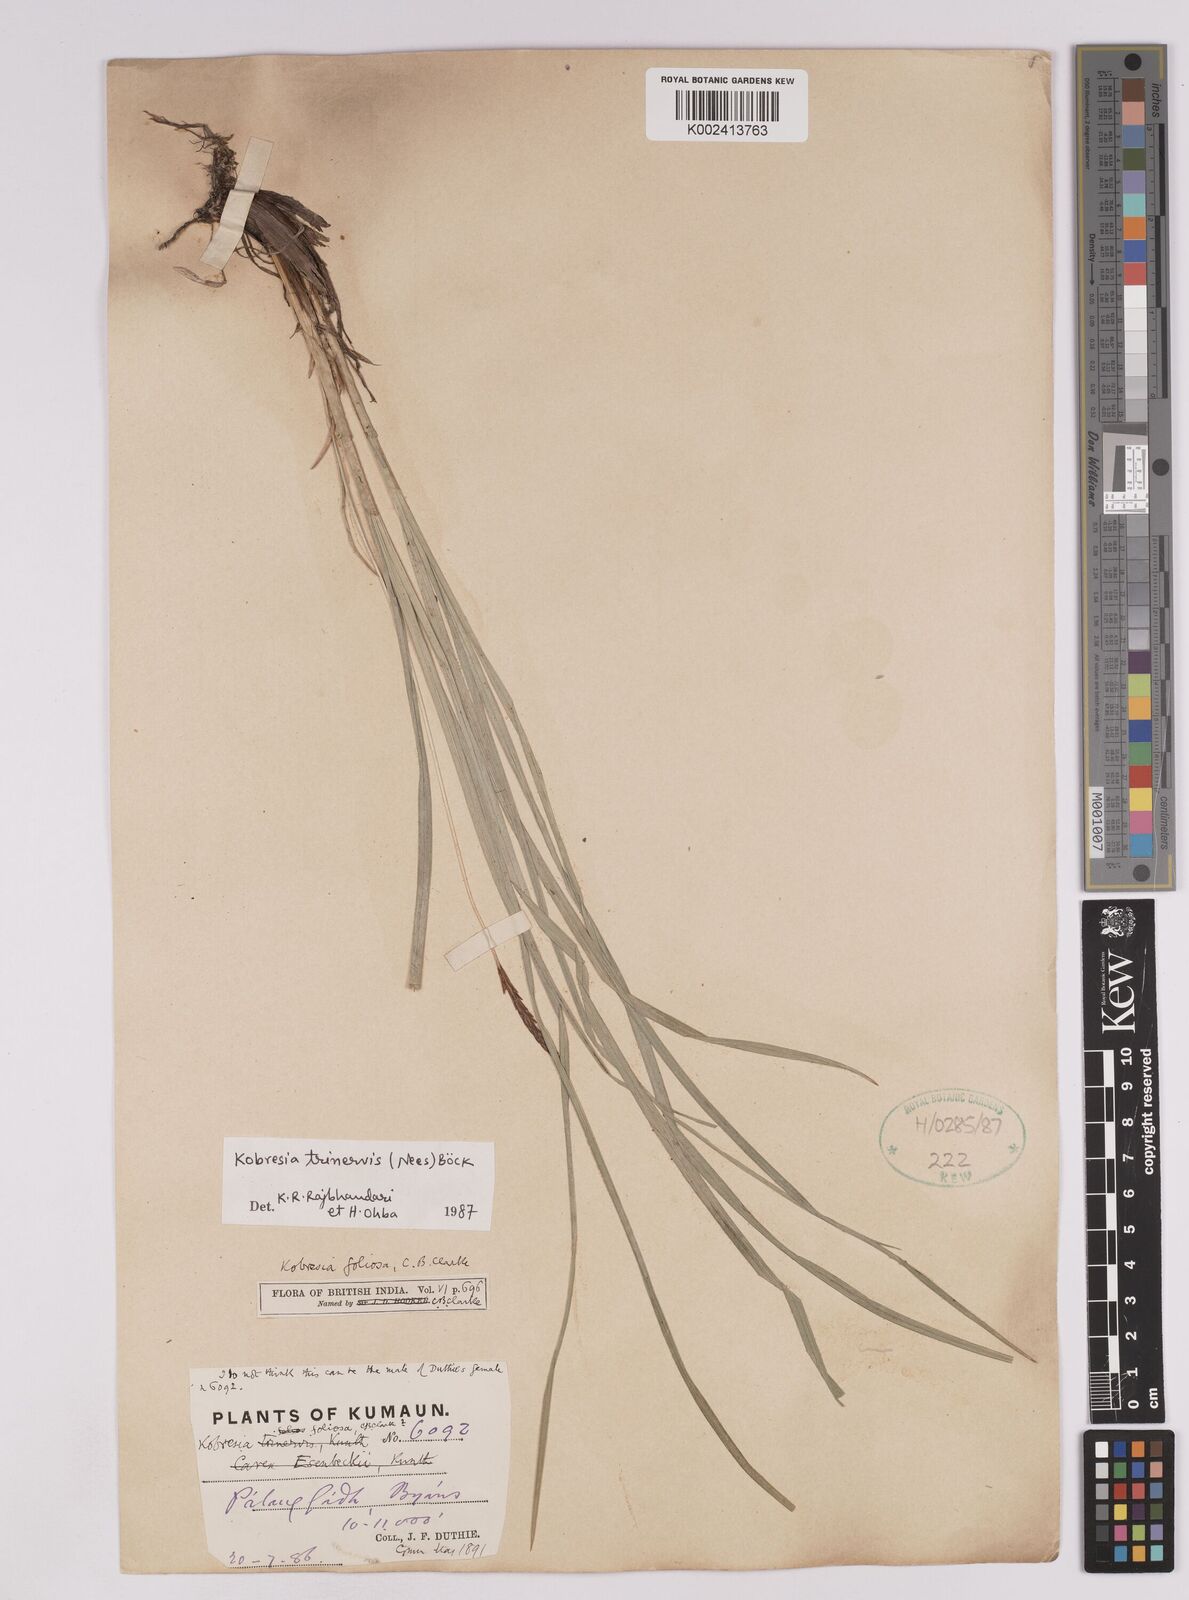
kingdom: Plantae
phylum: Tracheophyta
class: Liliopsida
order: Poales
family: Cyperaceae
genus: Carex
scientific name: Carex esenbeckii
